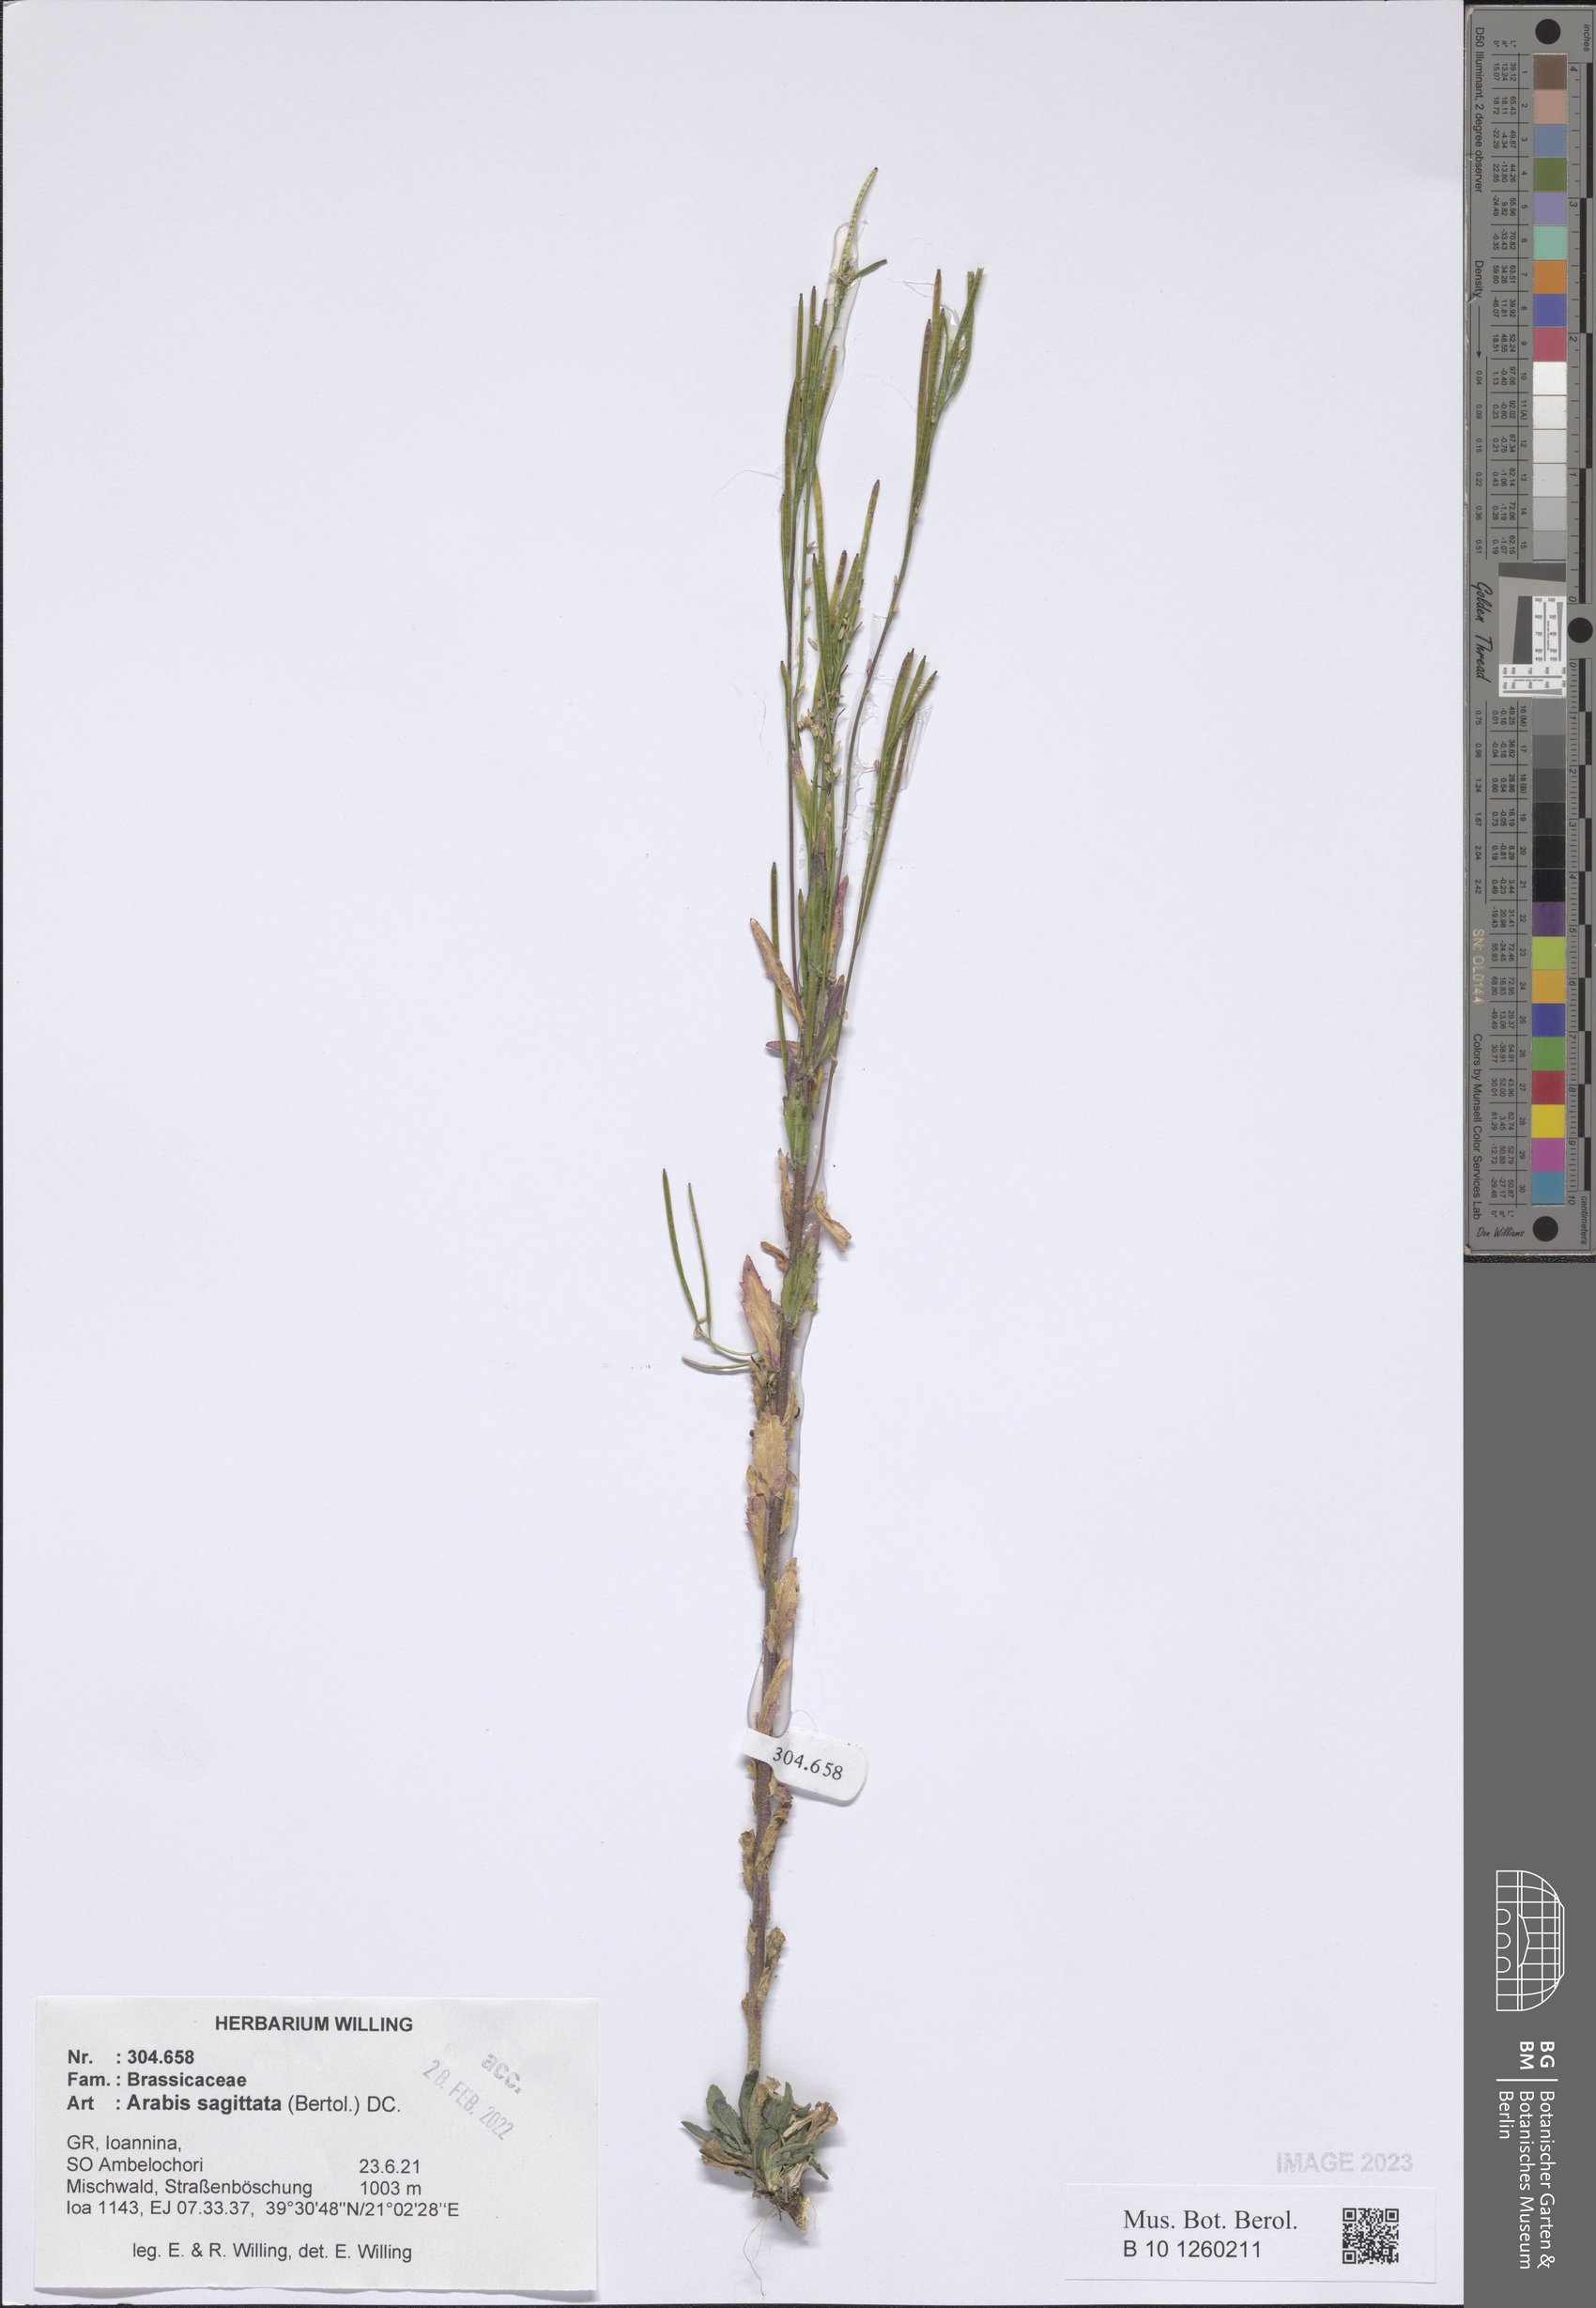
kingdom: Plantae
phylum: Tracheophyta
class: Magnoliopsida
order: Brassicales
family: Brassicaceae
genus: Arabis
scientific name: Arabis sagittata
